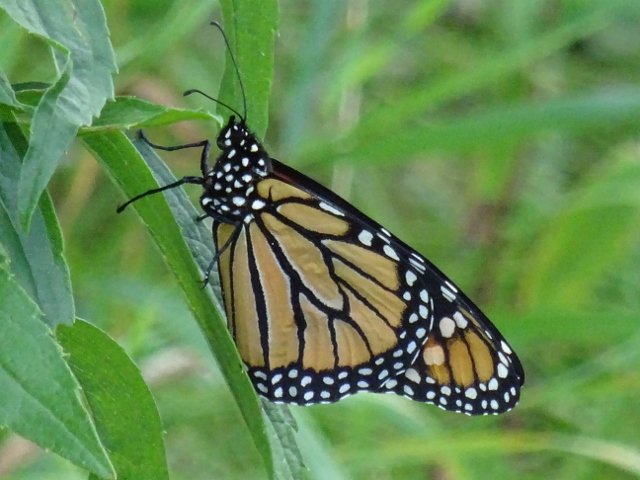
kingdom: Animalia
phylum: Arthropoda
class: Insecta
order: Lepidoptera
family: Nymphalidae
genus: Danaus
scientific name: Danaus plexippus
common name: Monarch
